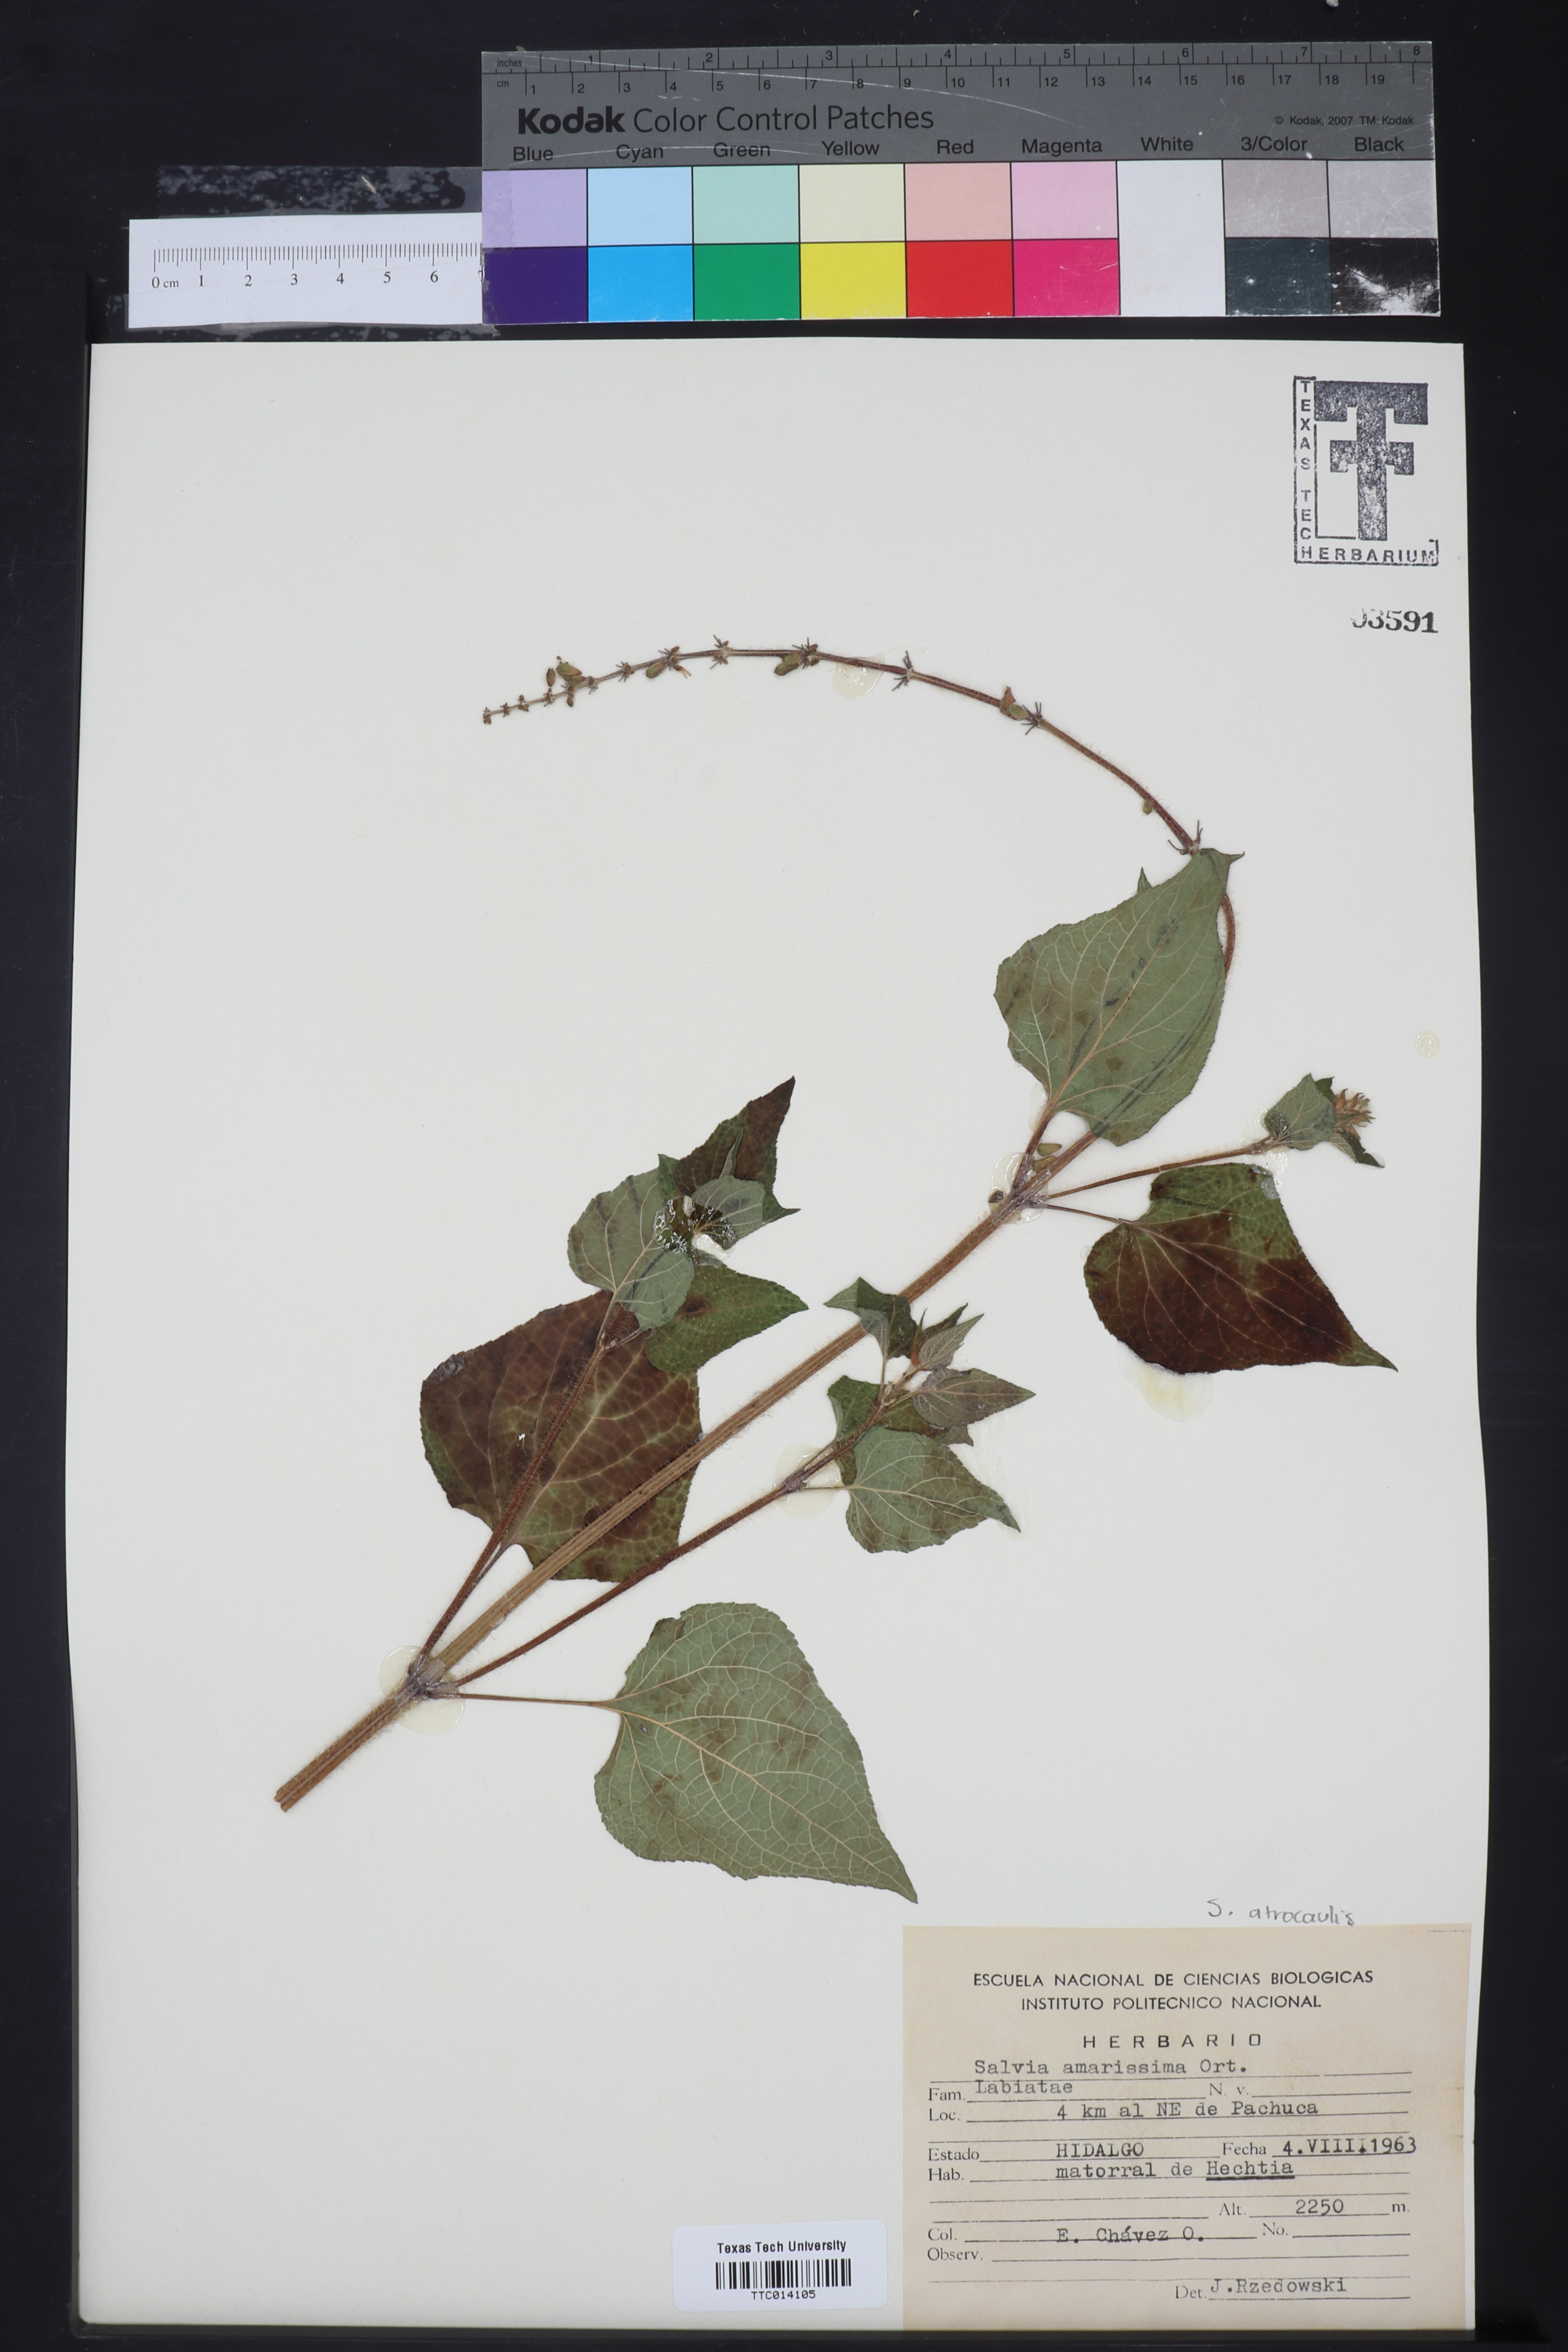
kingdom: Plantae
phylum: Tracheophyta
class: Magnoliopsida
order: Lamiales
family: Lamiaceae
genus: Salvia
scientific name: Salvia circinnata
